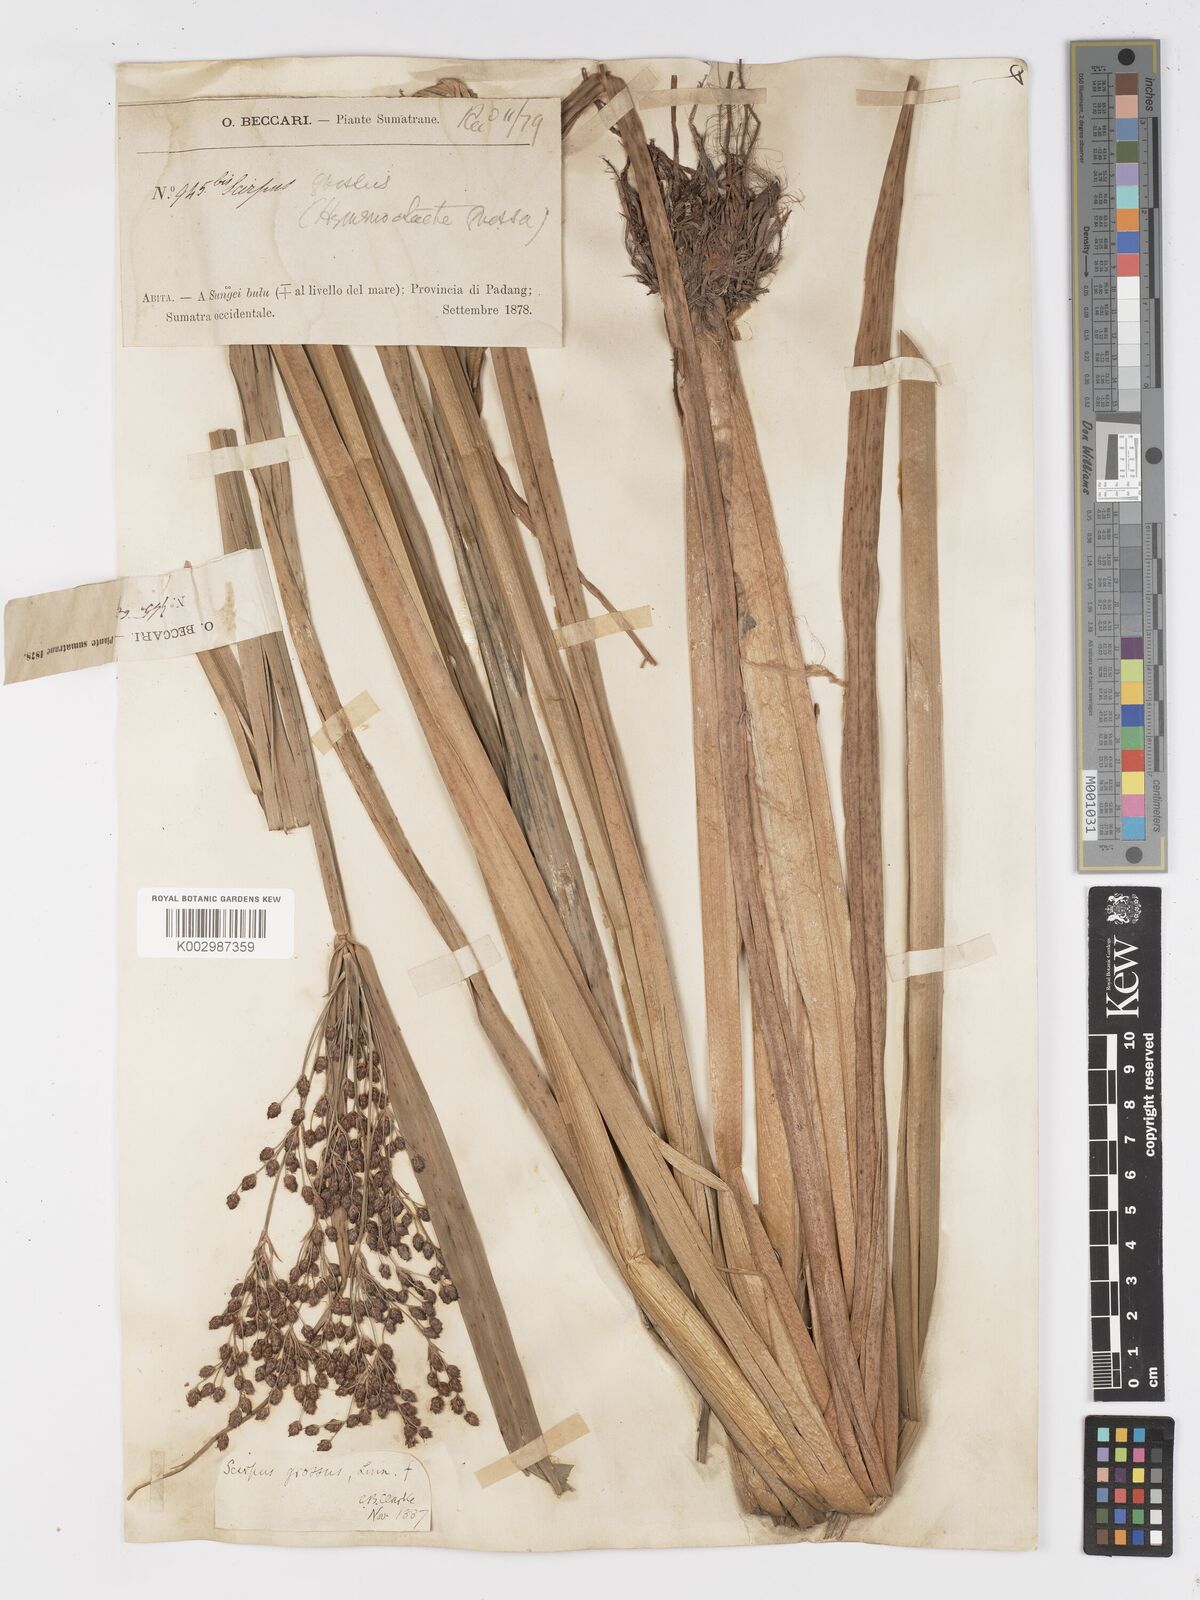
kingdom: Plantae
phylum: Tracheophyta
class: Liliopsida
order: Poales
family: Cyperaceae
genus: Actinoscirpus
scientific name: Actinoscirpus grossus
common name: Giant bur rush
